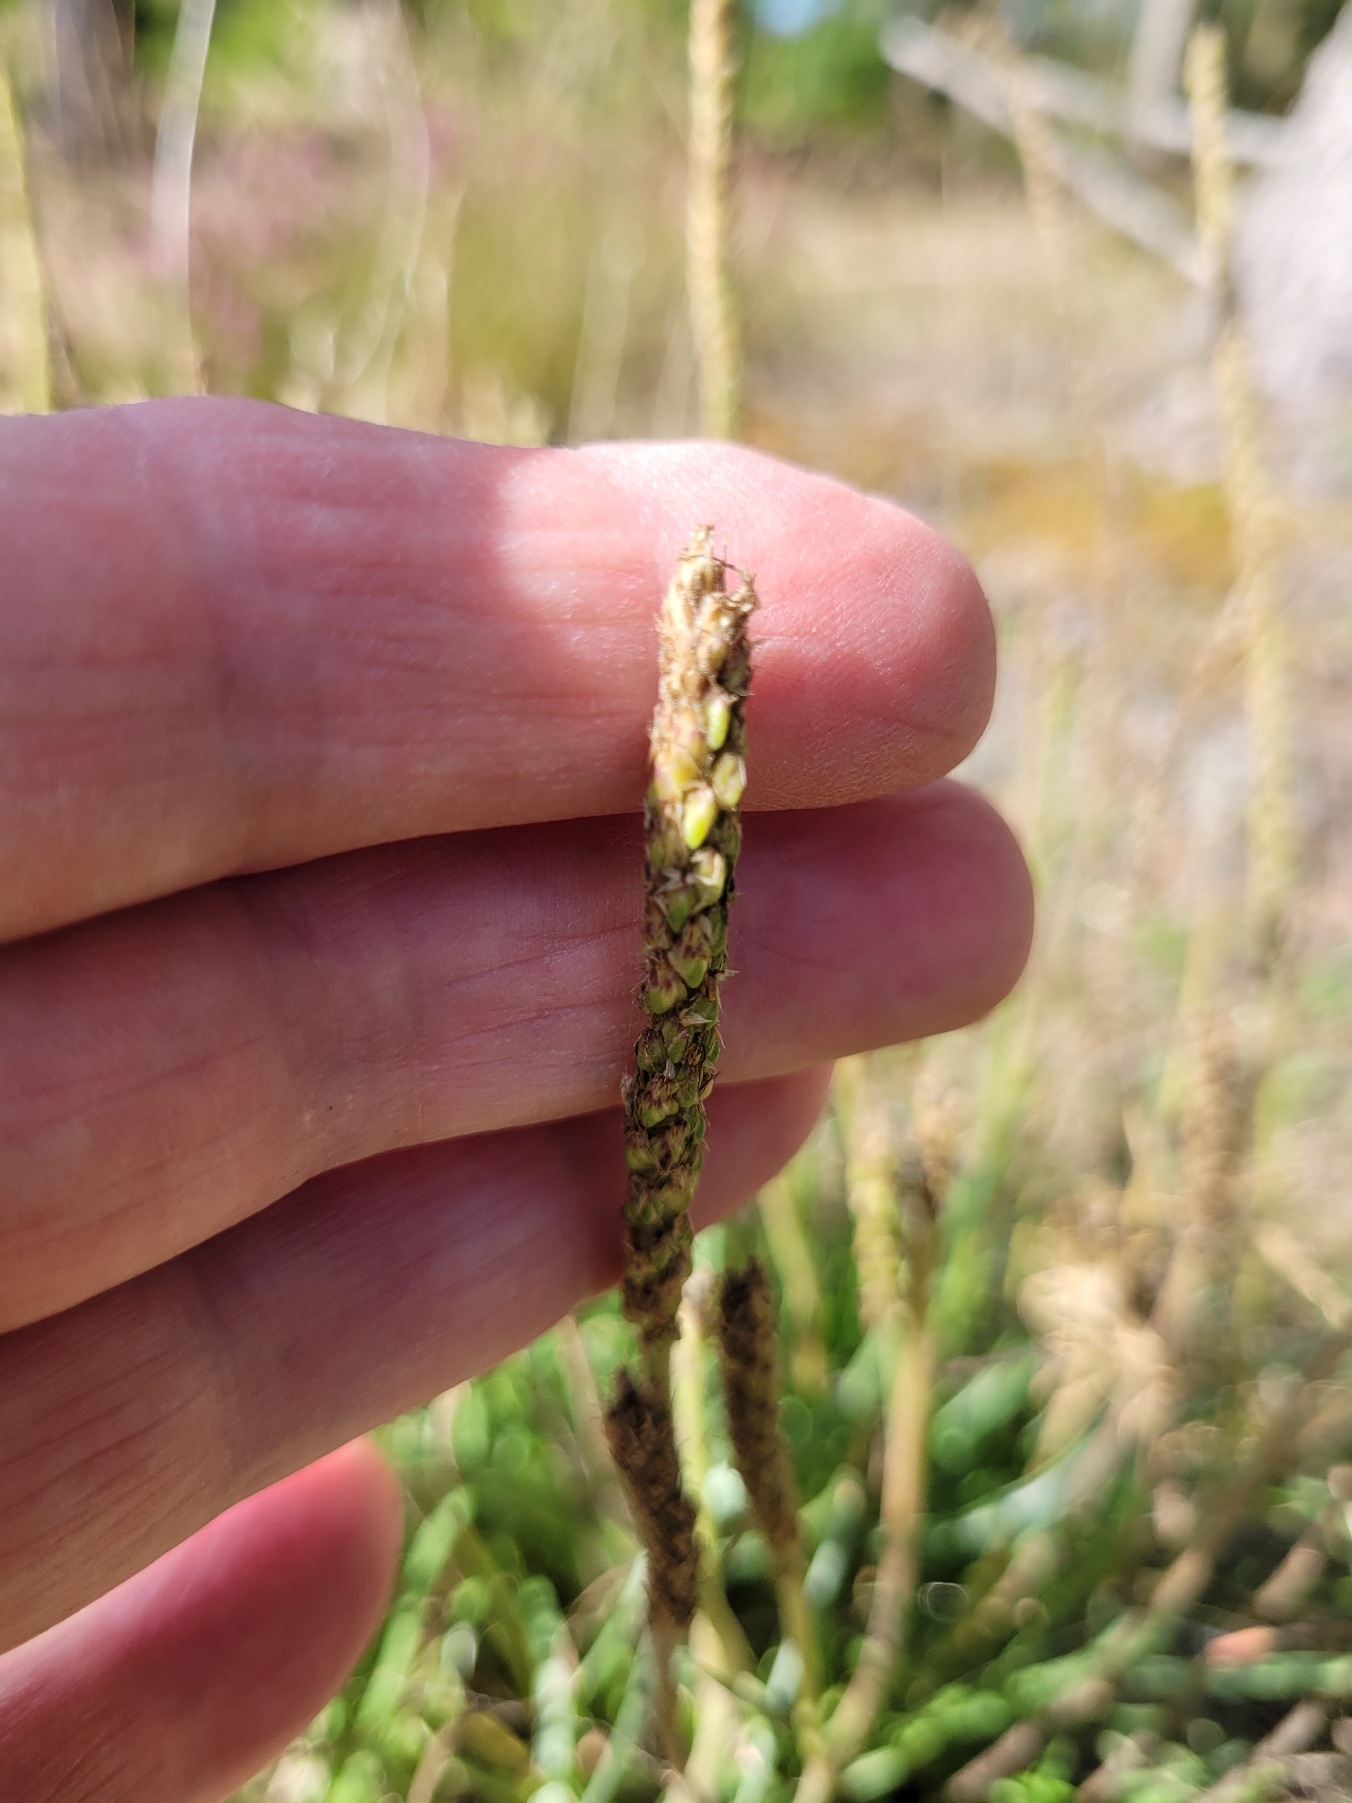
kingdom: Plantae
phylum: Tracheophyta
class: Magnoliopsida
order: Lamiales
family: Plantaginaceae
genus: Plantago
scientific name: Plantago maritima
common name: Strand-vejbred
